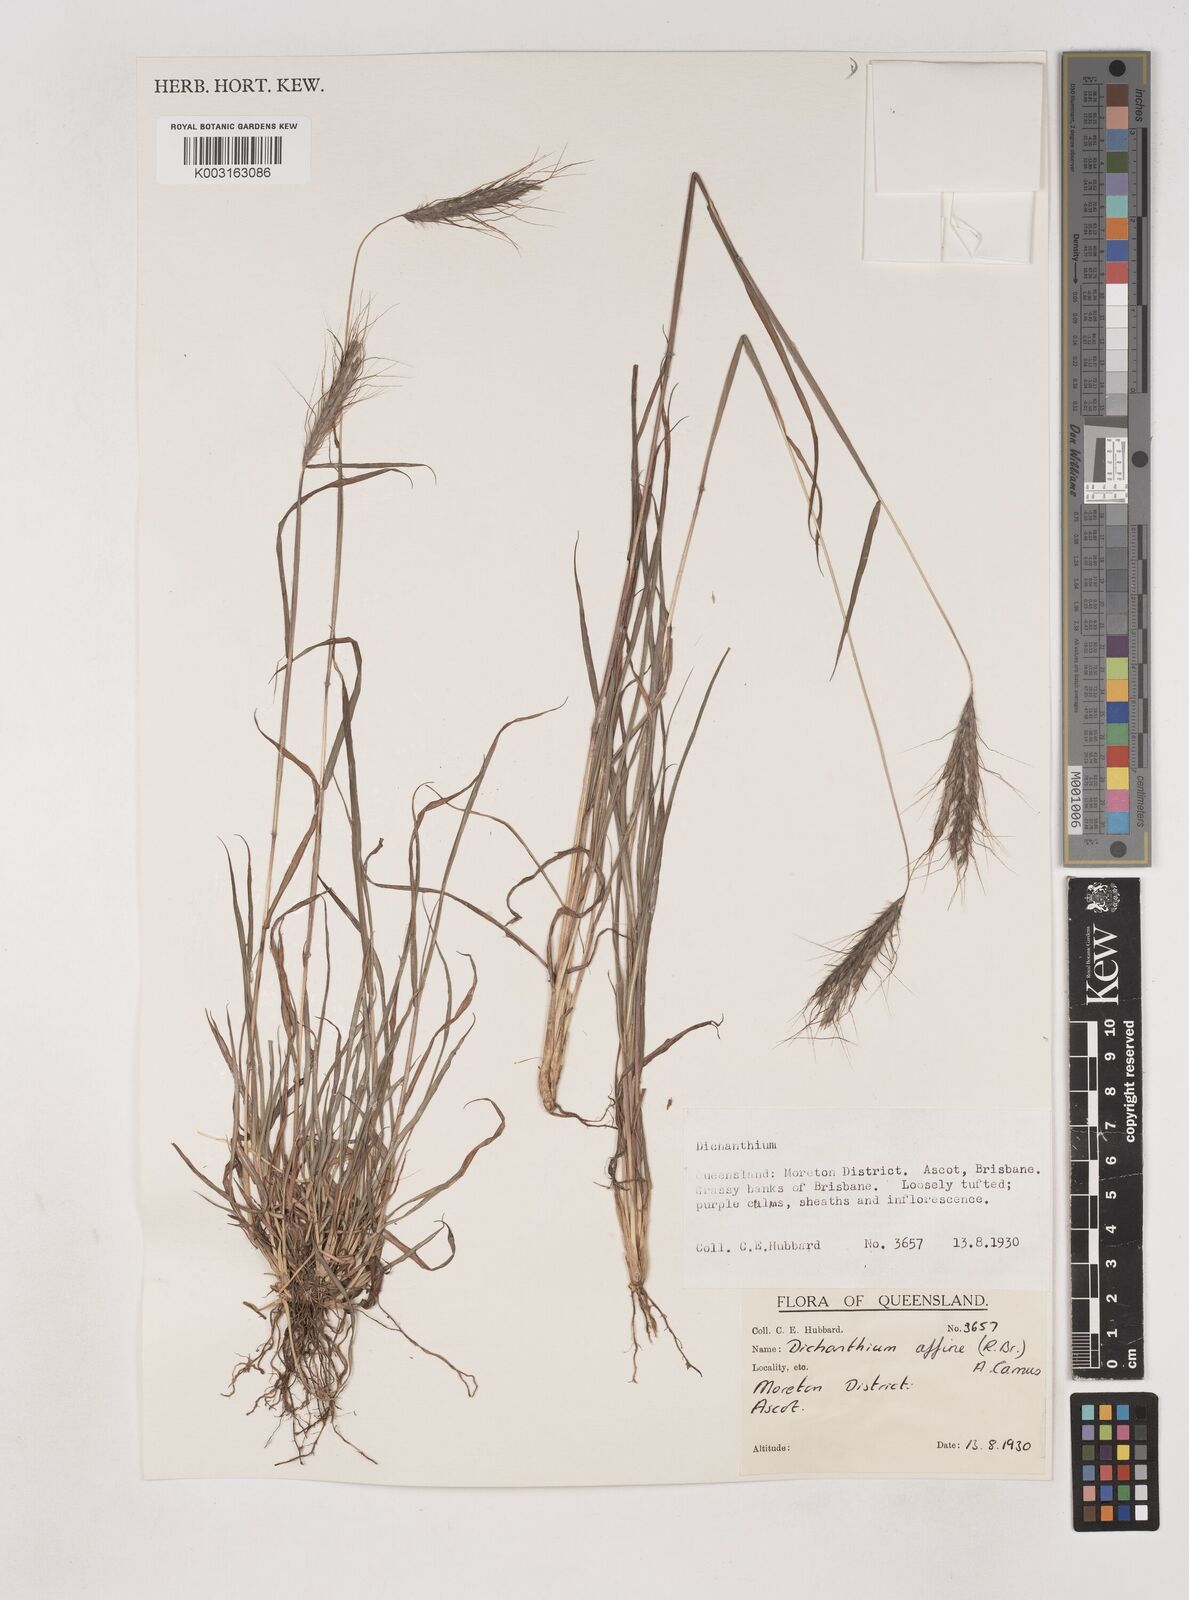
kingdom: Plantae
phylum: Tracheophyta
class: Liliopsida
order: Poales
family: Poaceae
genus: Dichanthium
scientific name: Dichanthium sericeum
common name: Silky bluestem
